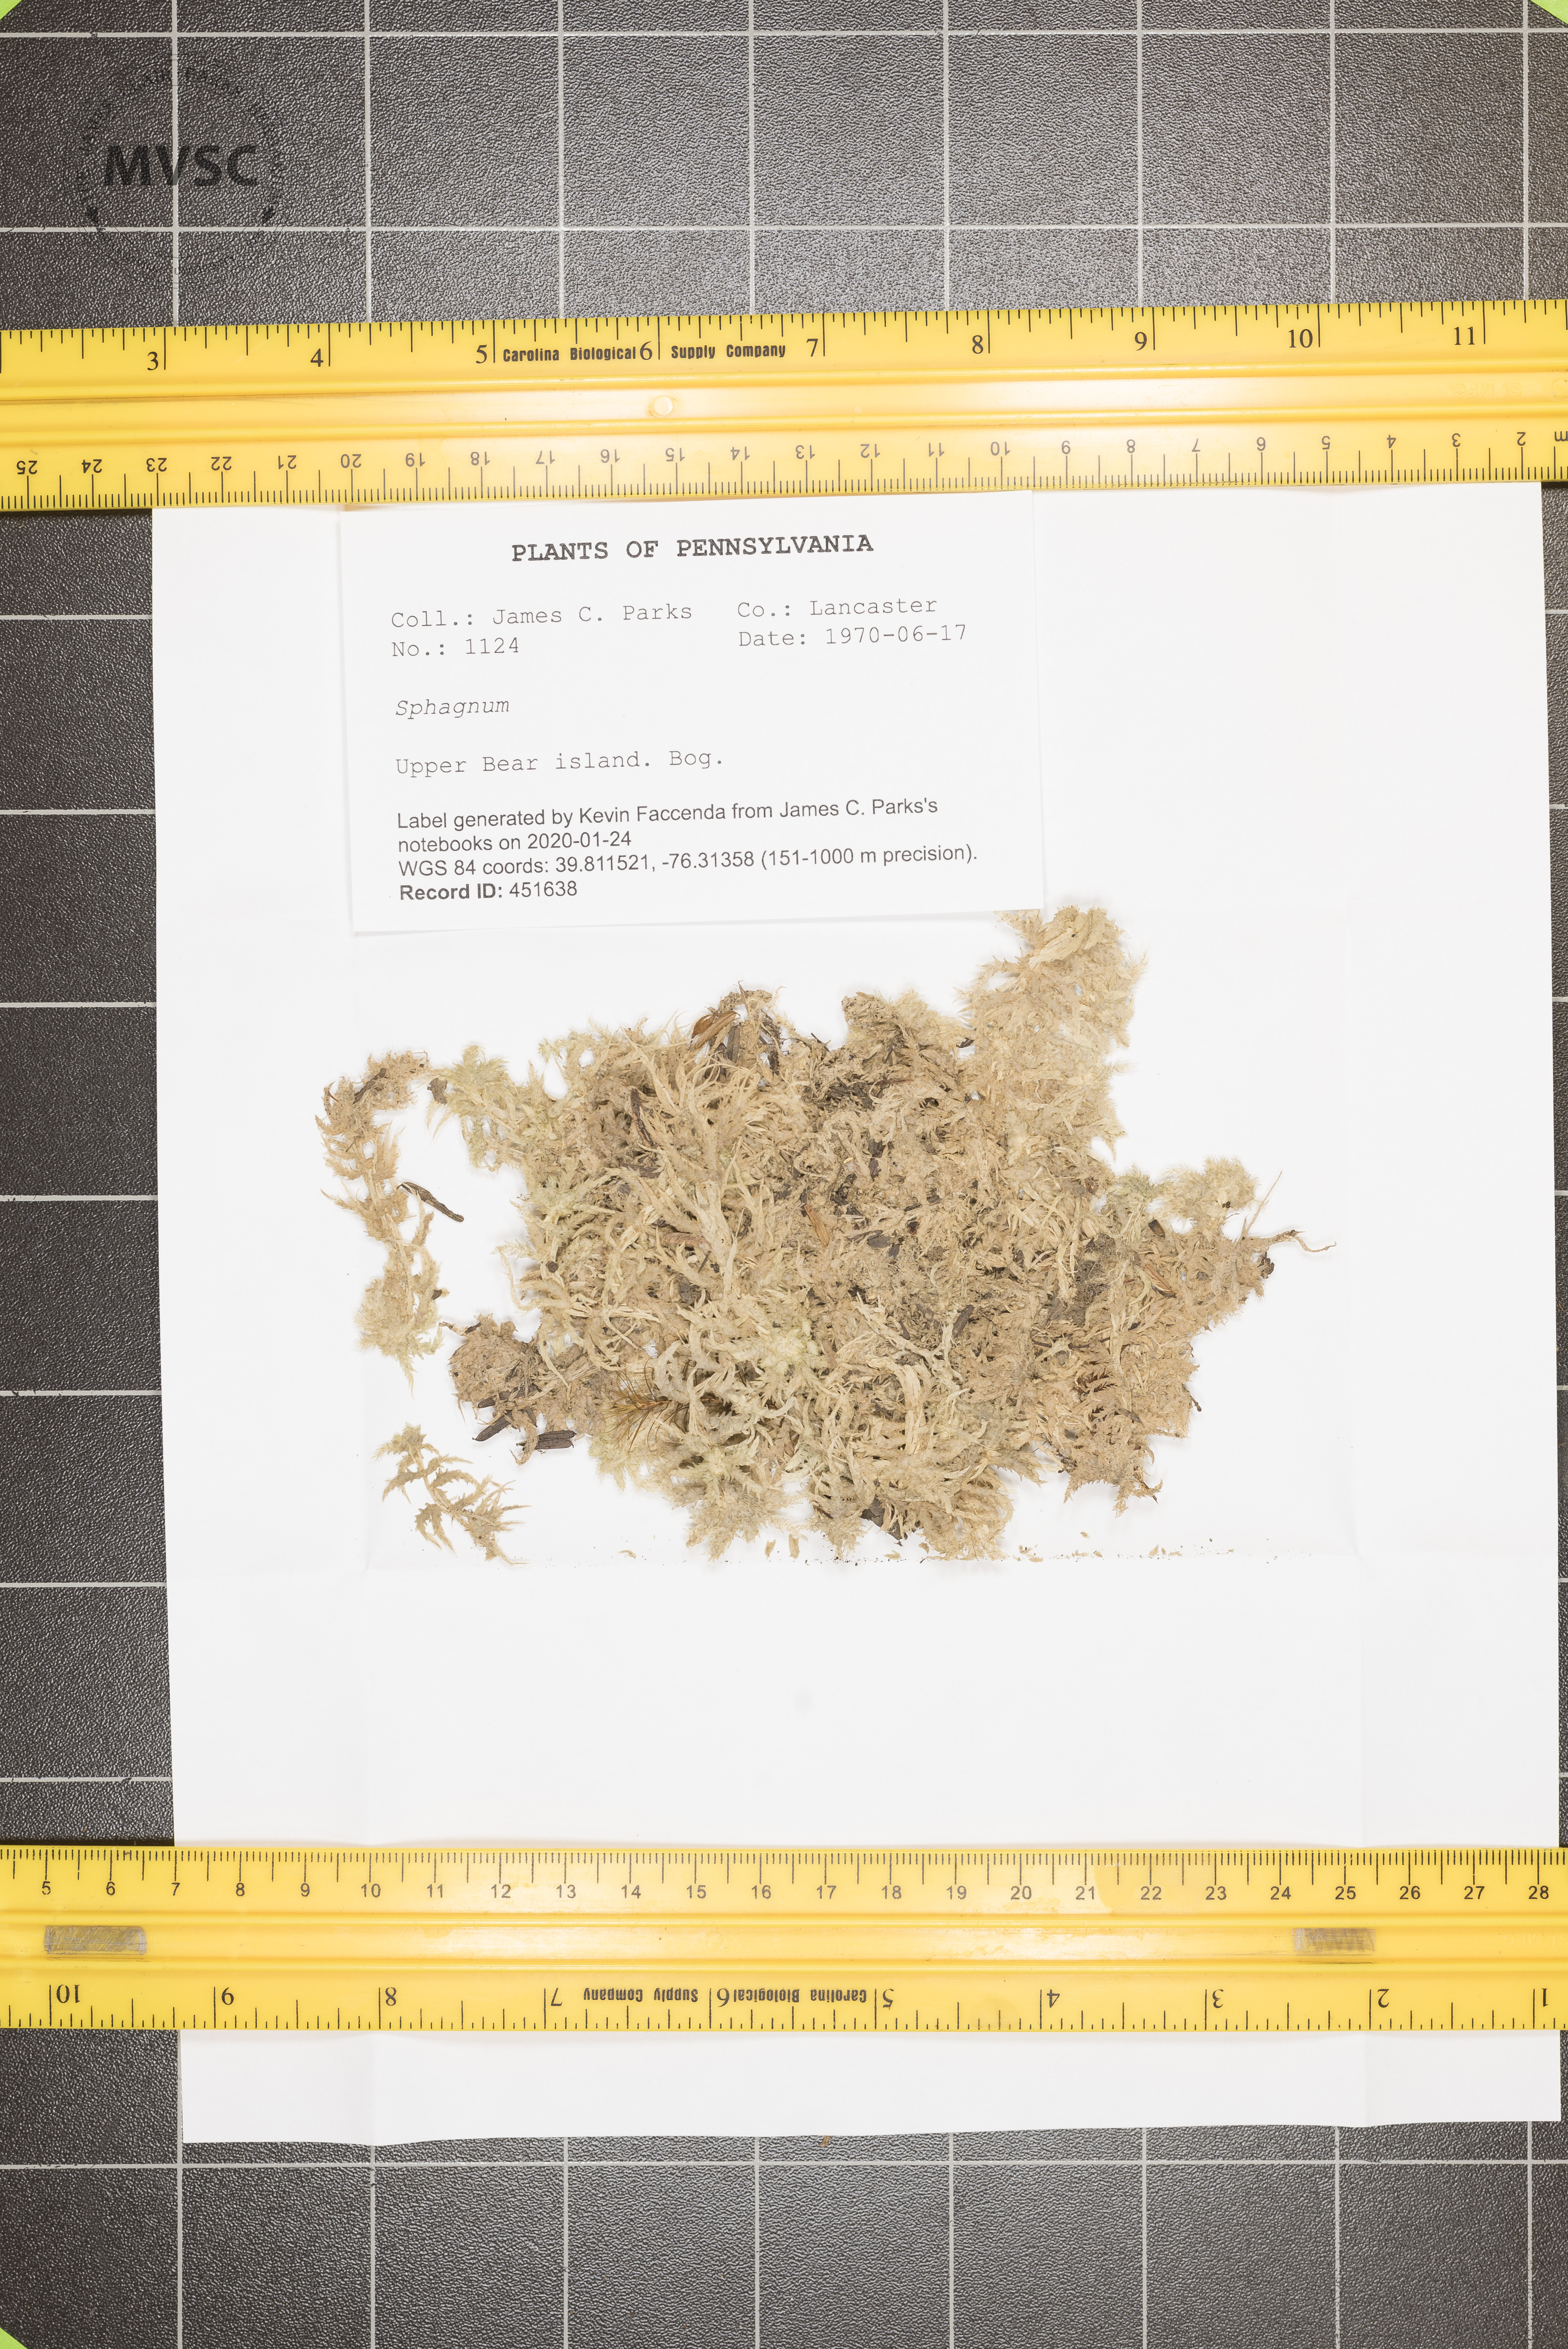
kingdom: Plantae
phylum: Bryophyta
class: Sphagnopsida
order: Sphagnales
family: Sphagnaceae
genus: Sphagnum
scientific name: Sphagnum
